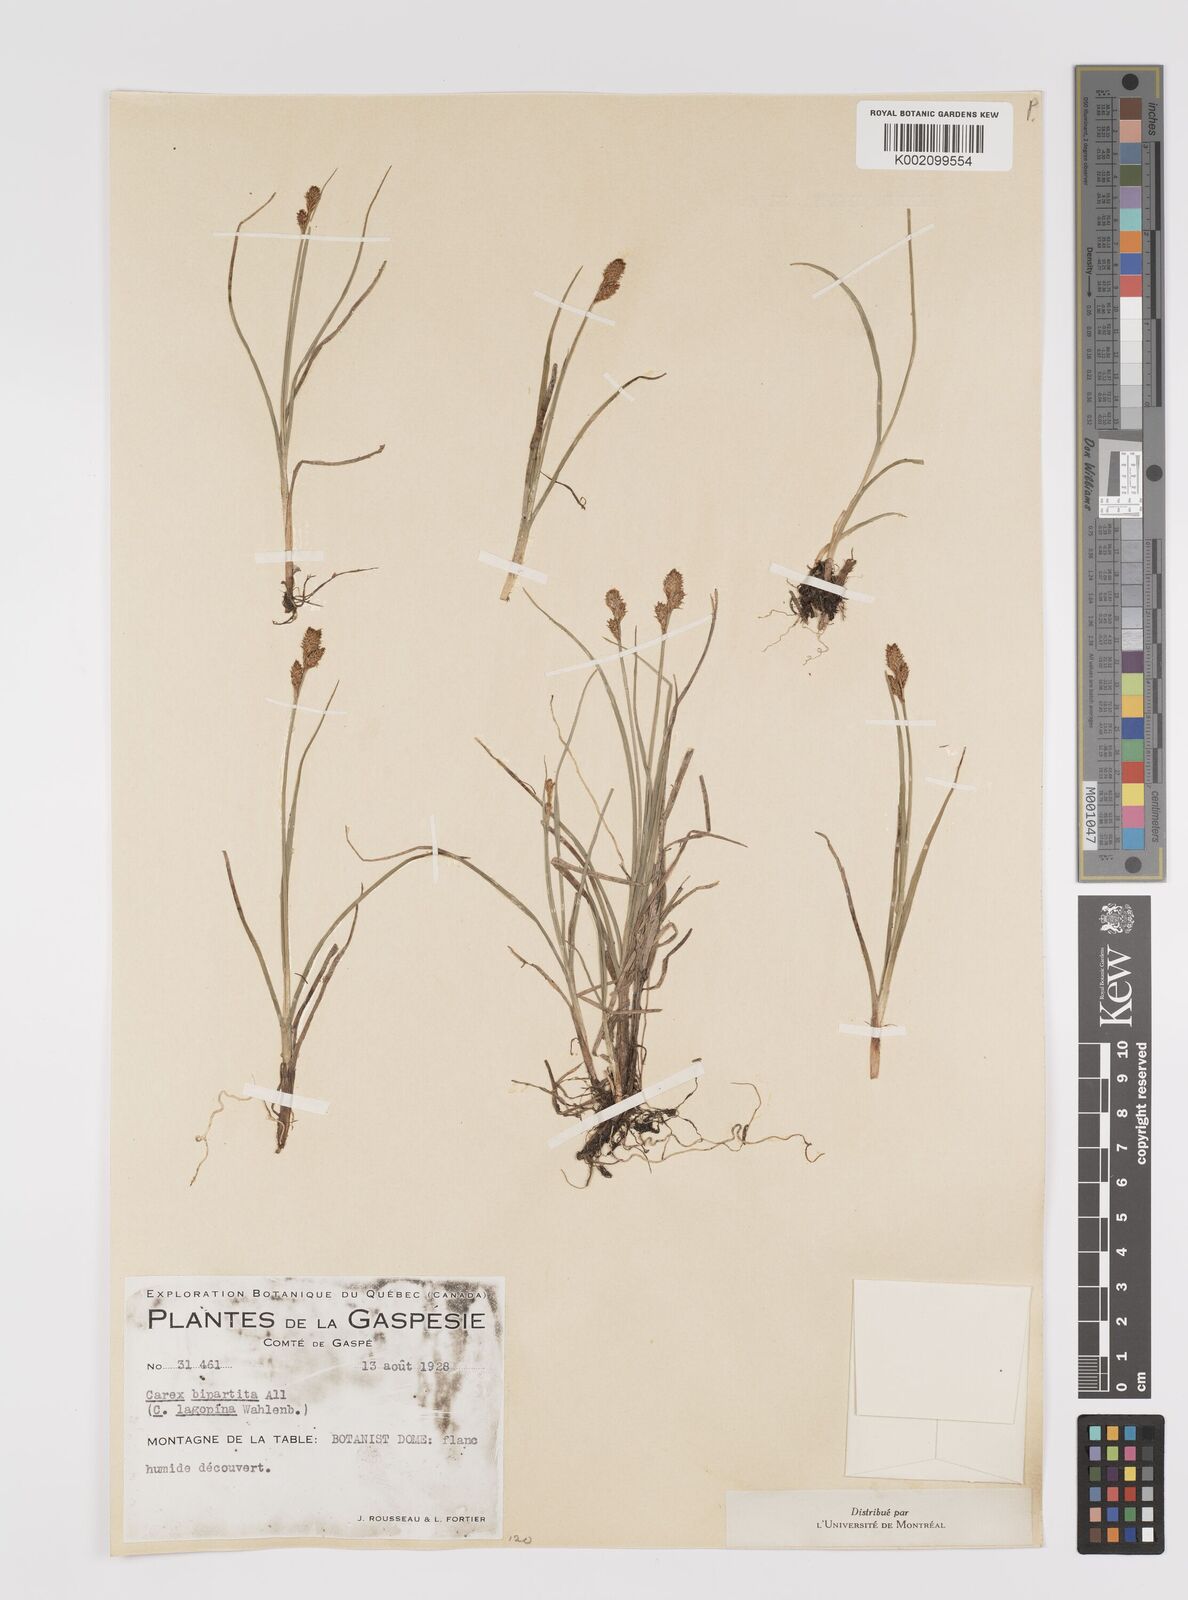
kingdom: Plantae
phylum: Tracheophyta
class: Liliopsida
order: Poales
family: Cyperaceae
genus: Carex
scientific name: Carex lachenalii
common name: Hare's-foot sedge
